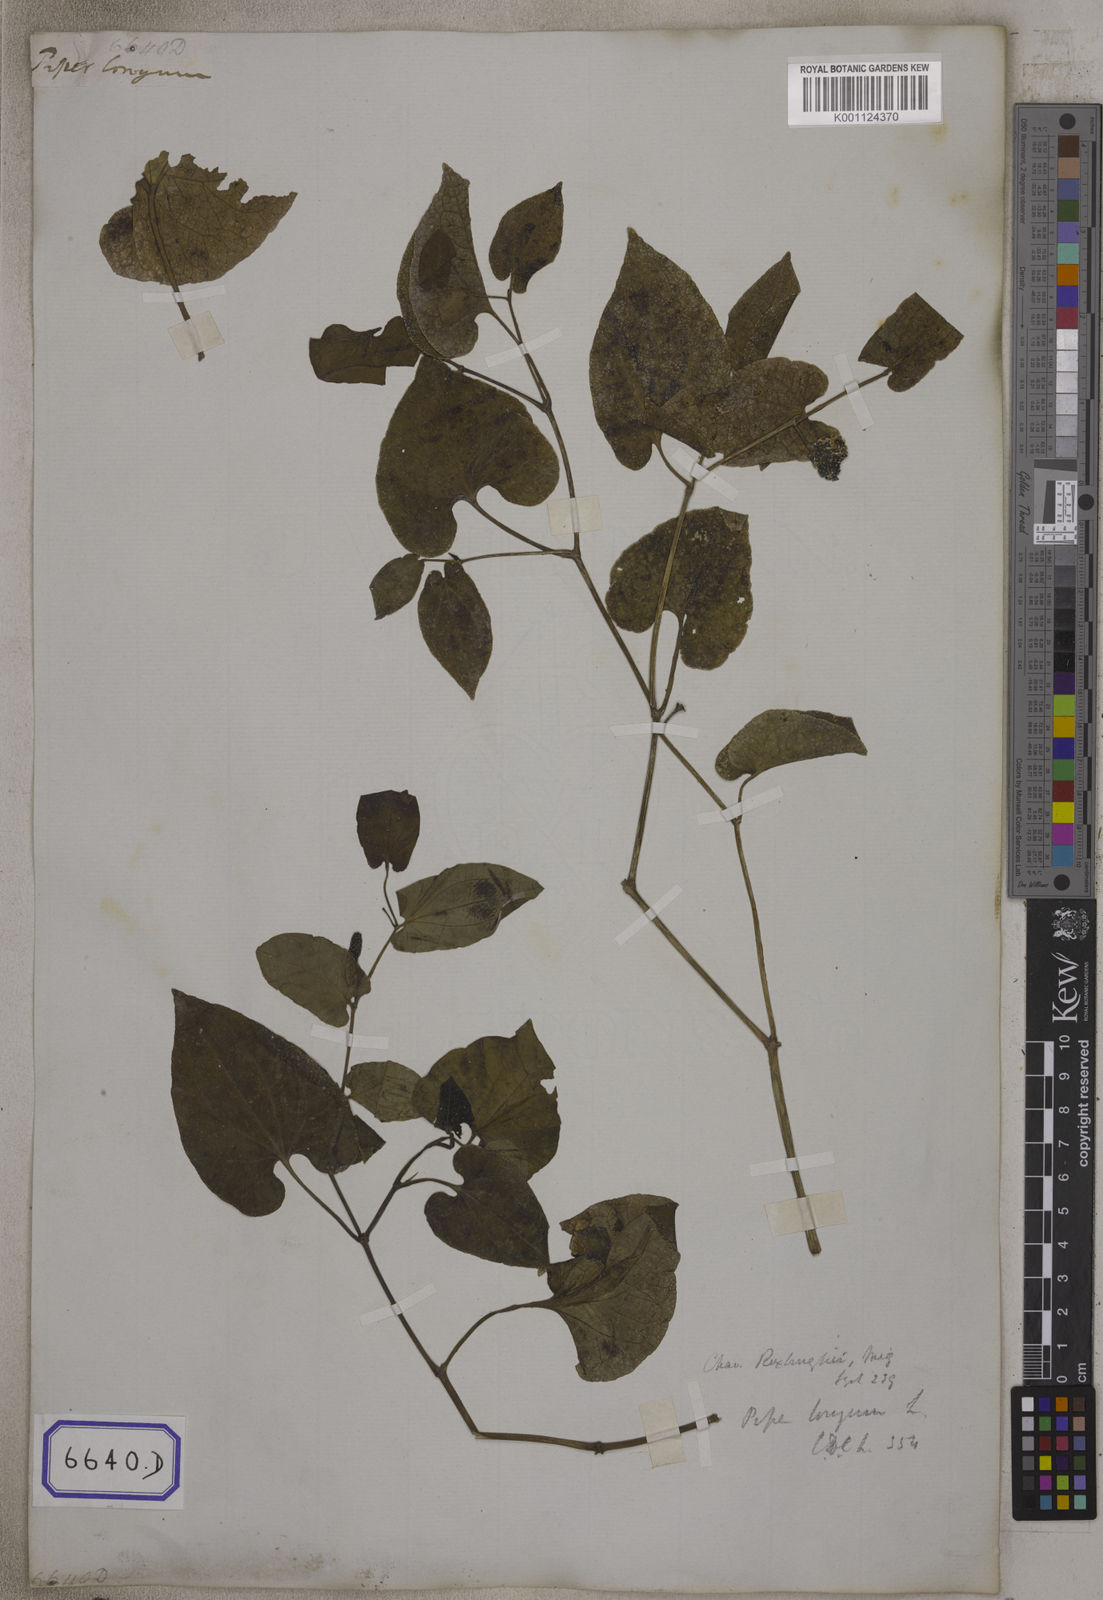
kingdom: Plantae
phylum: Tracheophyta
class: Magnoliopsida
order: Piperales
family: Piperaceae
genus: Piper
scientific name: Piper longum
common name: Long pepper
